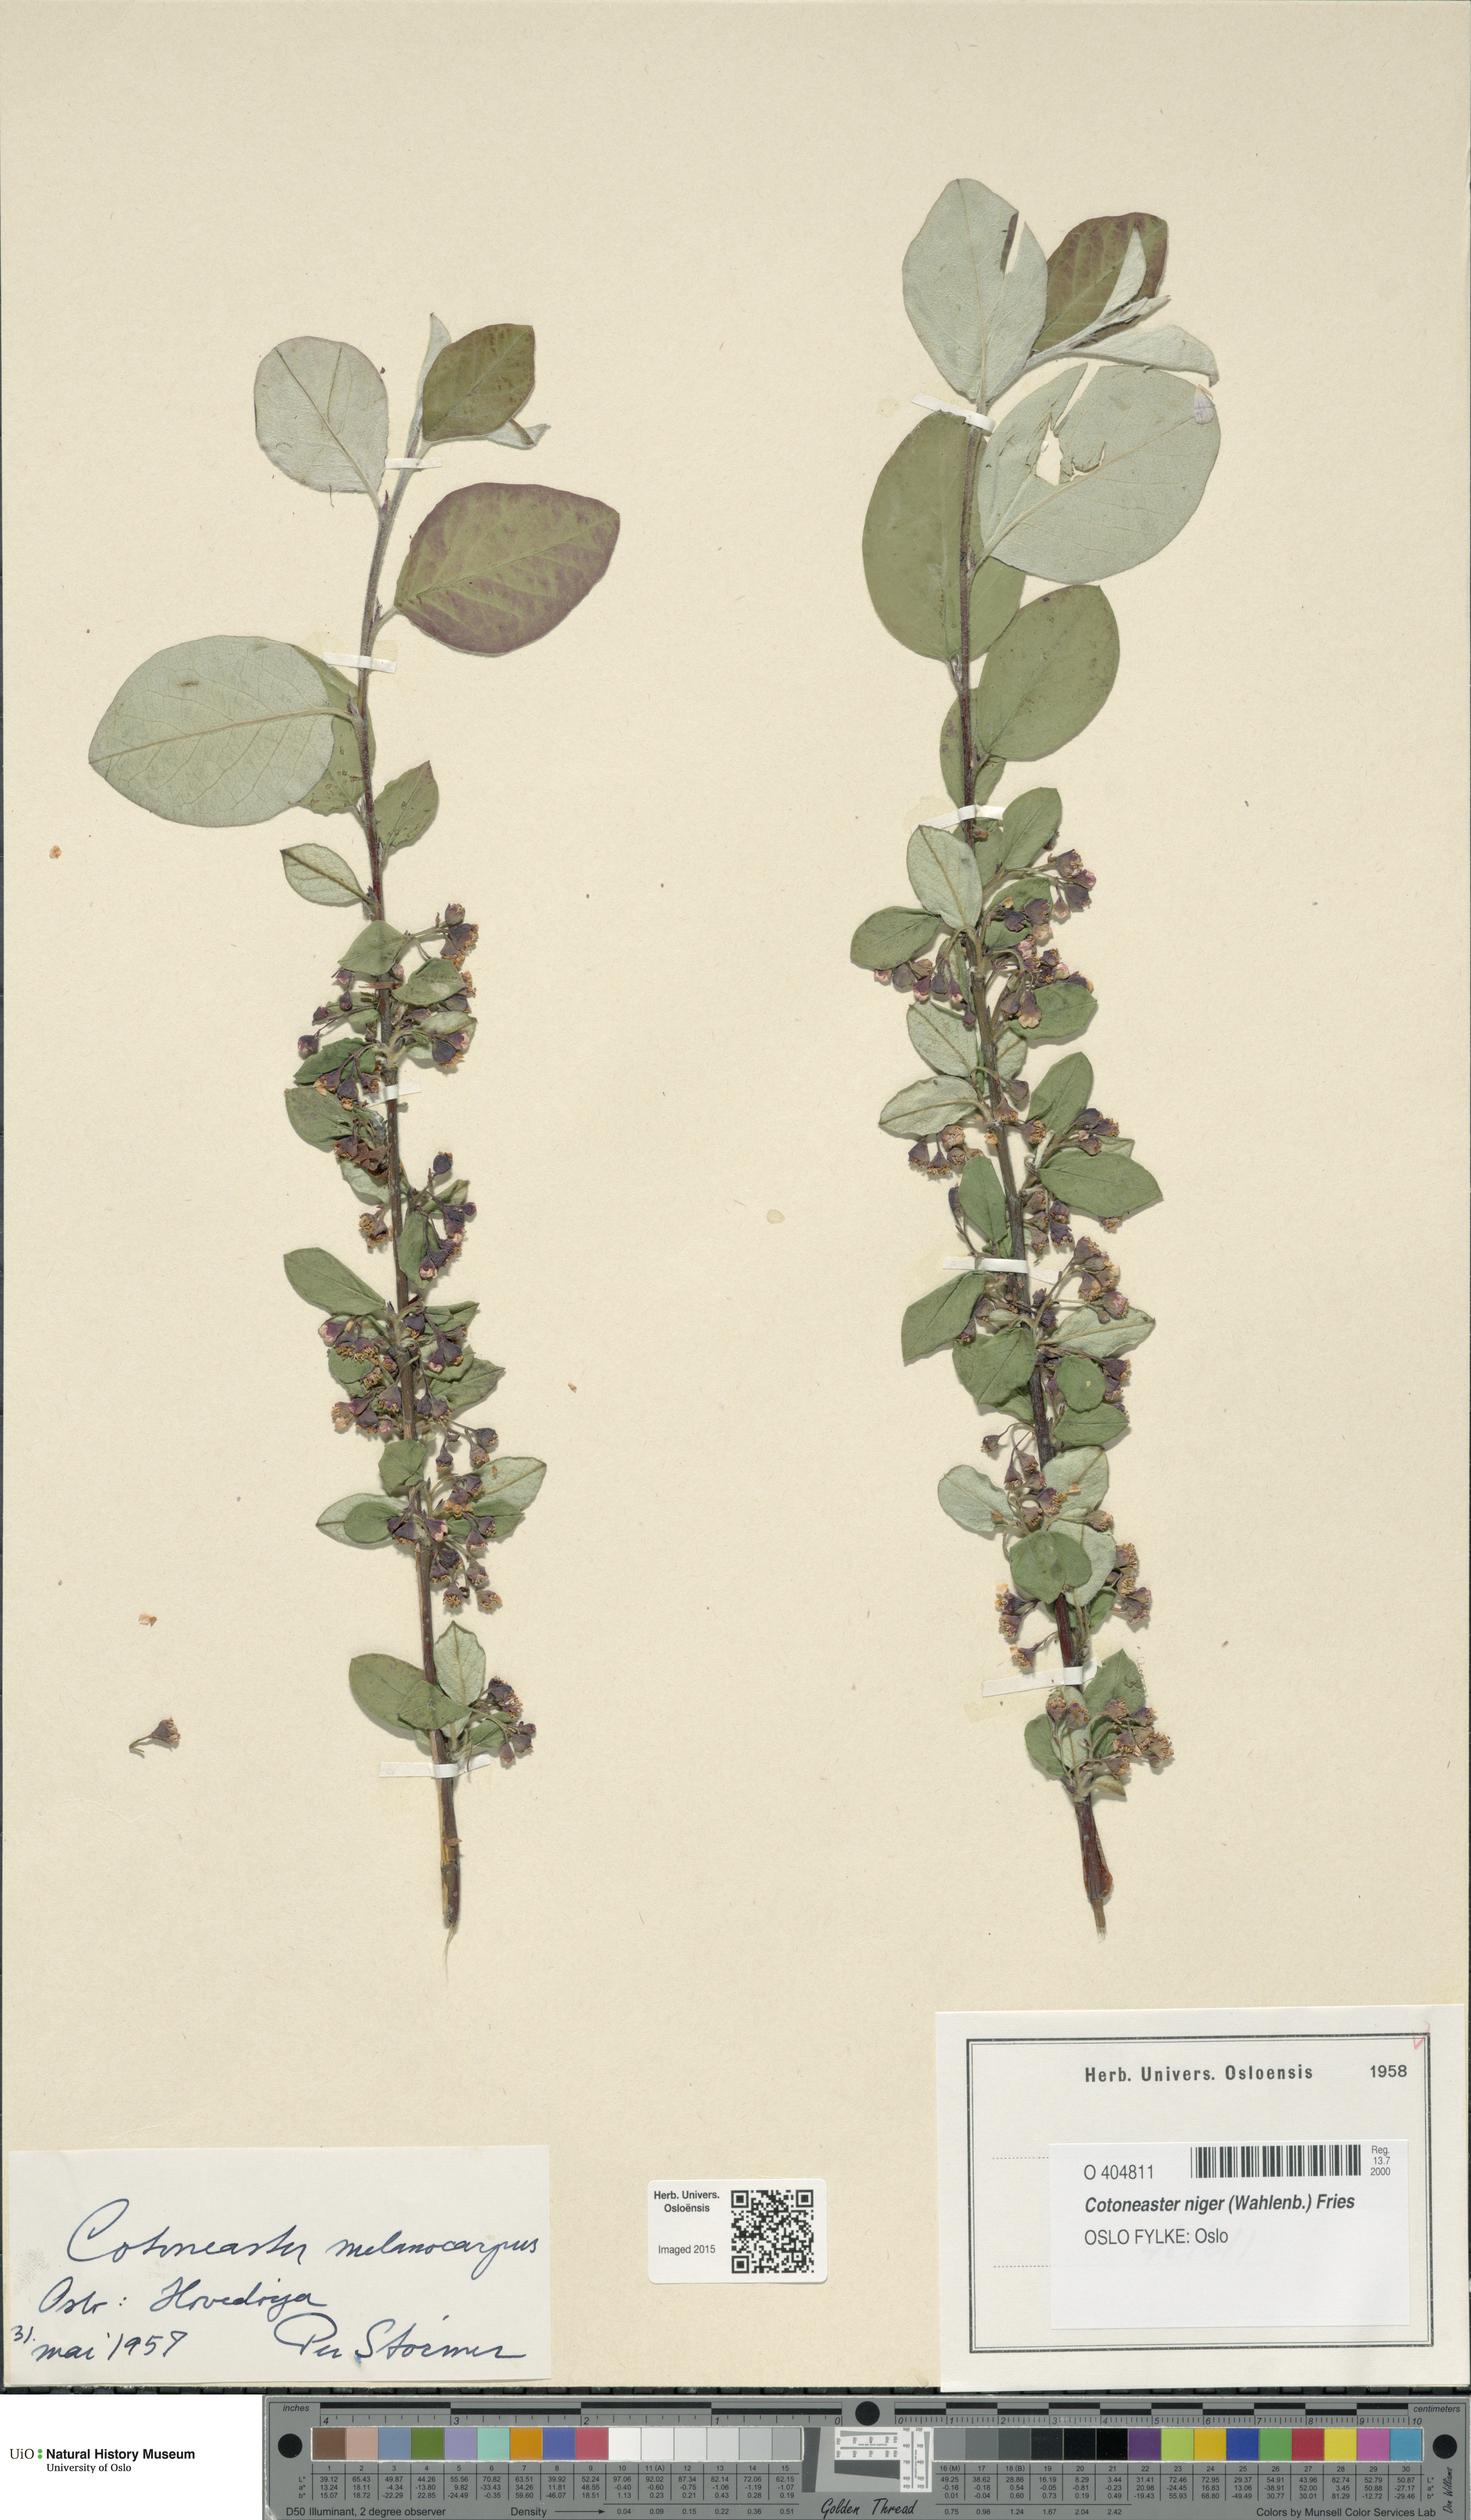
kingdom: Plantae
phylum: Tracheophyta
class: Magnoliopsida
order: Rosales
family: Rosaceae
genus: Cotoneaster
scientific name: Cotoneaster niger
